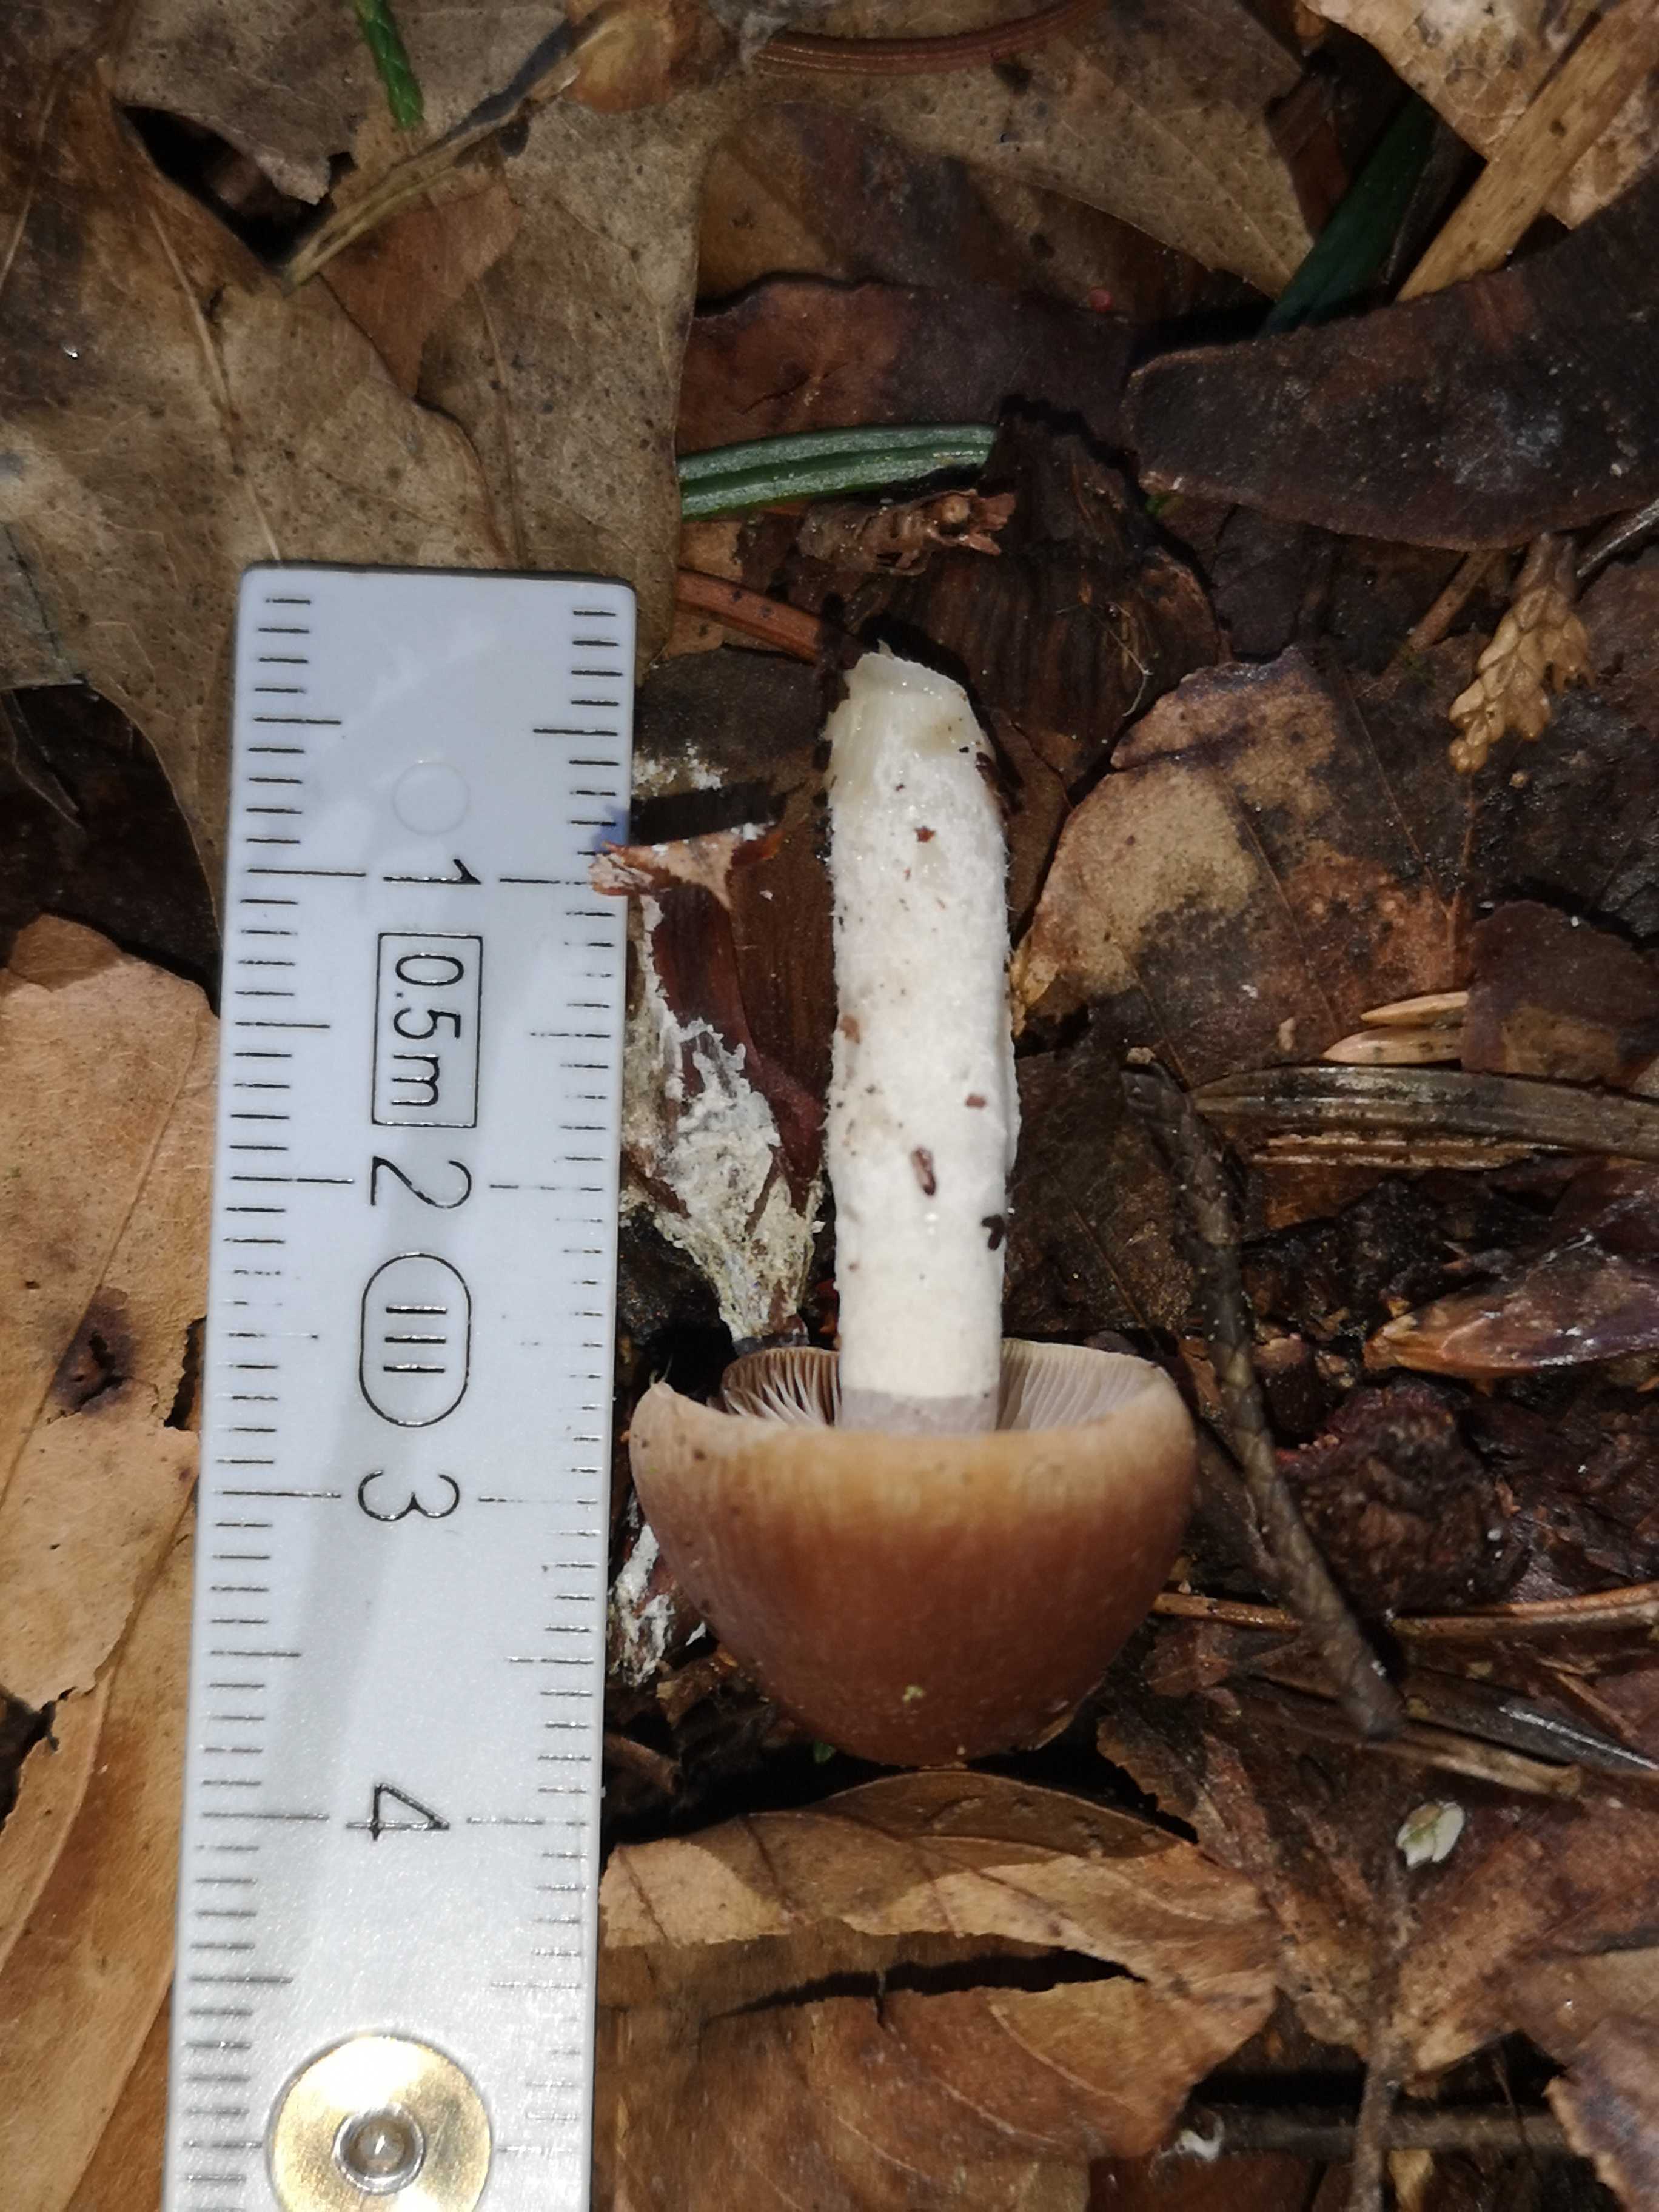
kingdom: Fungi
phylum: Basidiomycota
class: Agaricomycetes
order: Agaricales
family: Psathyrellaceae
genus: Psathyrella
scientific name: Psathyrella
